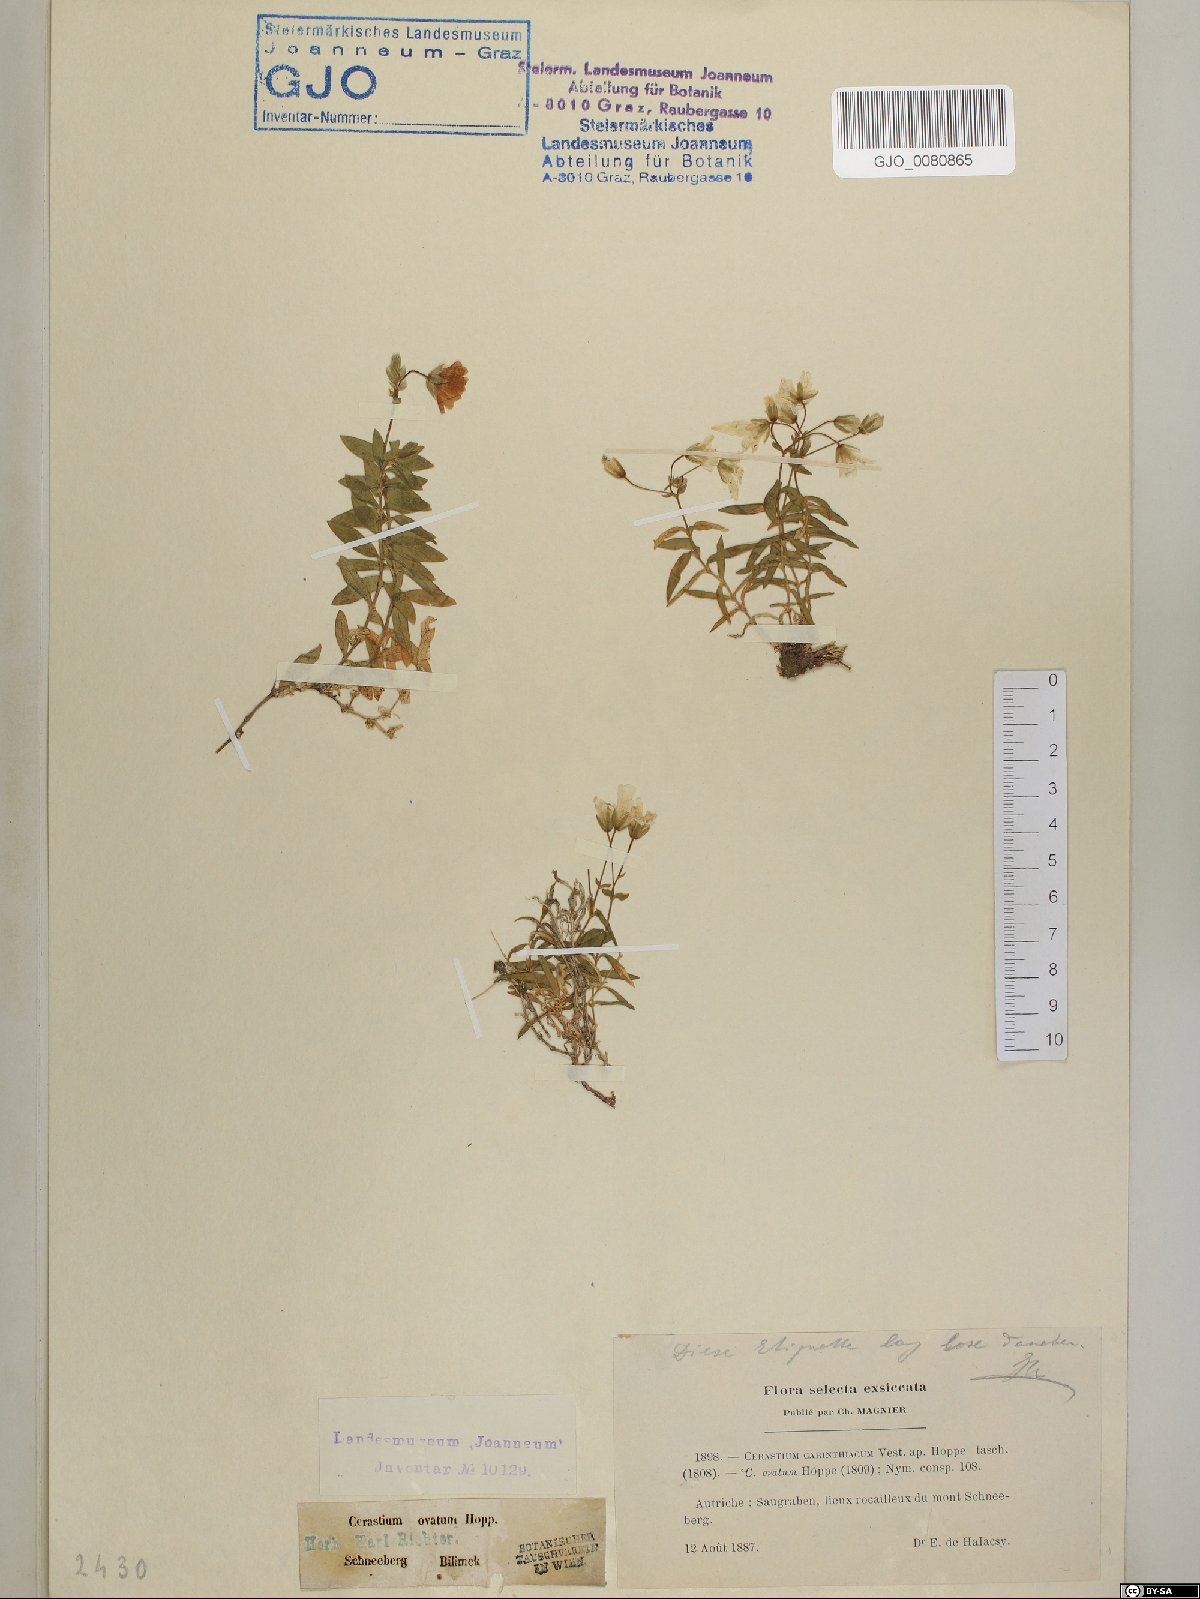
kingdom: Plantae
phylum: Tracheophyta
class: Magnoliopsida
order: Caryophyllales
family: Caryophyllaceae
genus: Cerastium
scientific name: Cerastium carinthiacum
